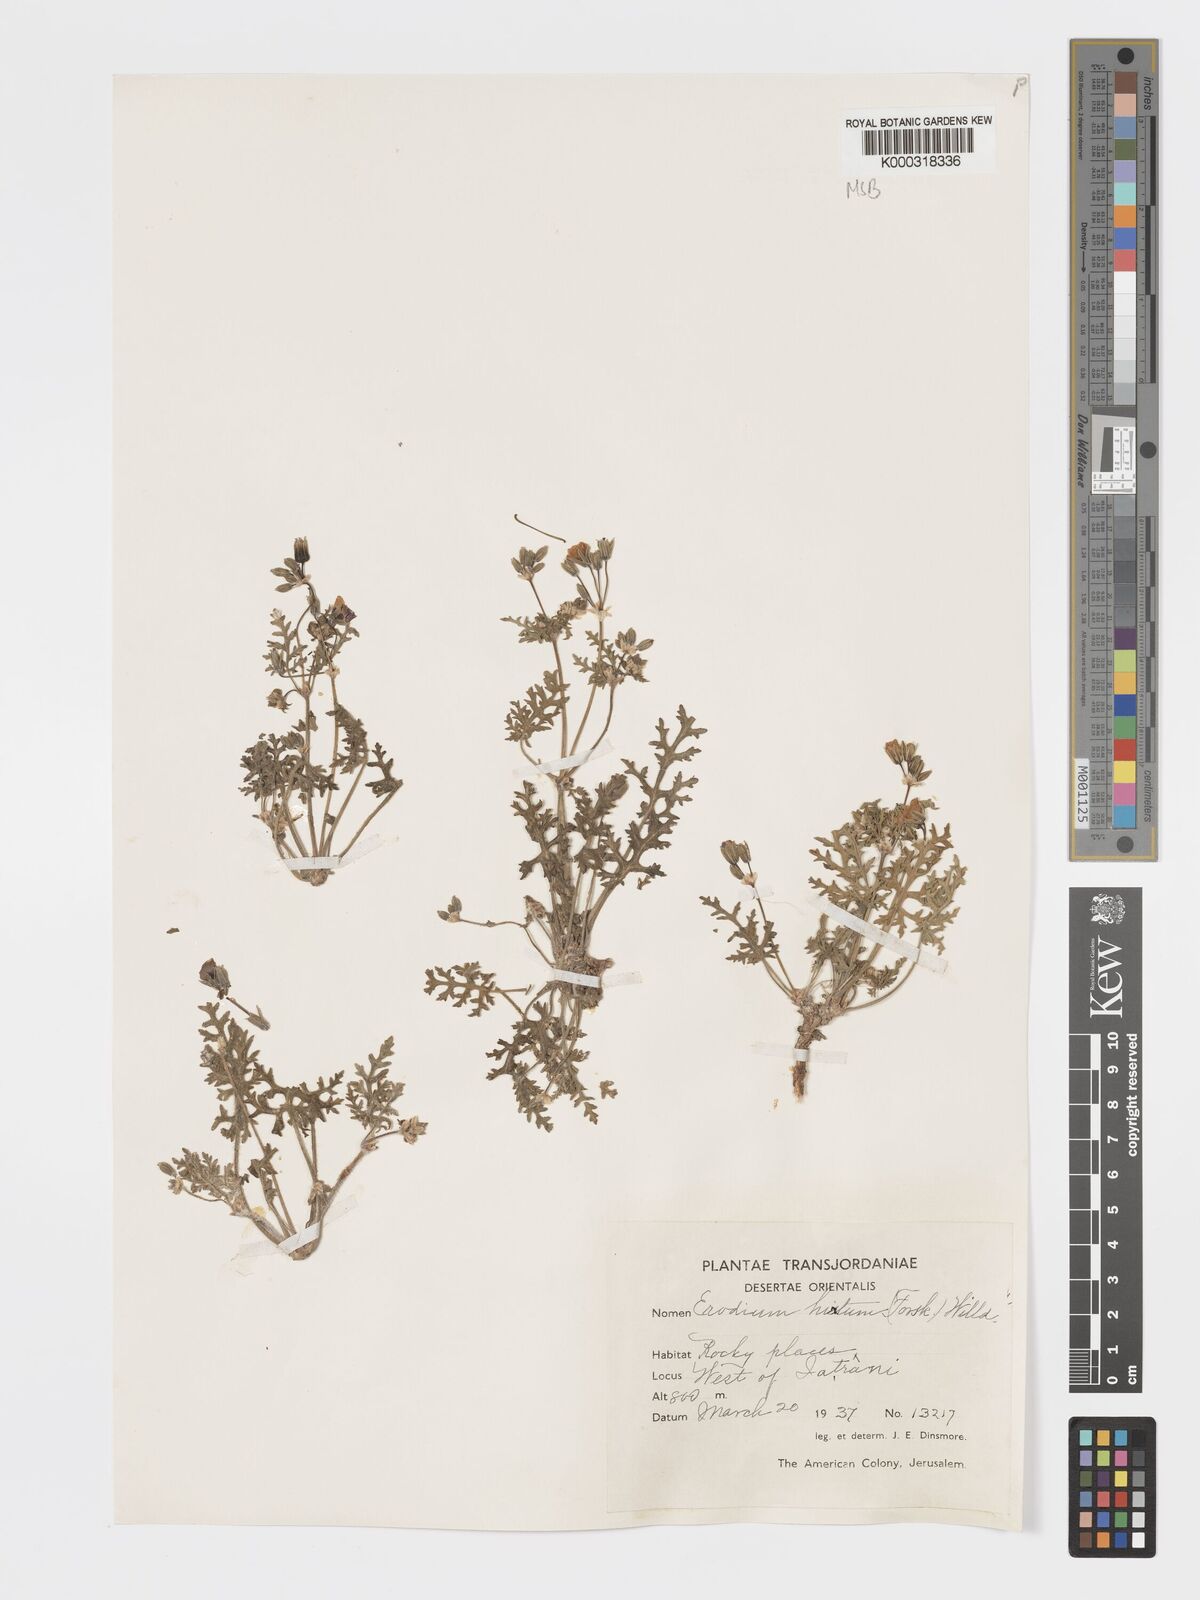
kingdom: Plantae
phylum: Tracheophyta
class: Magnoliopsida
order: Geraniales
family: Geraniaceae
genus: Erodium
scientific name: Erodium crassifolium
